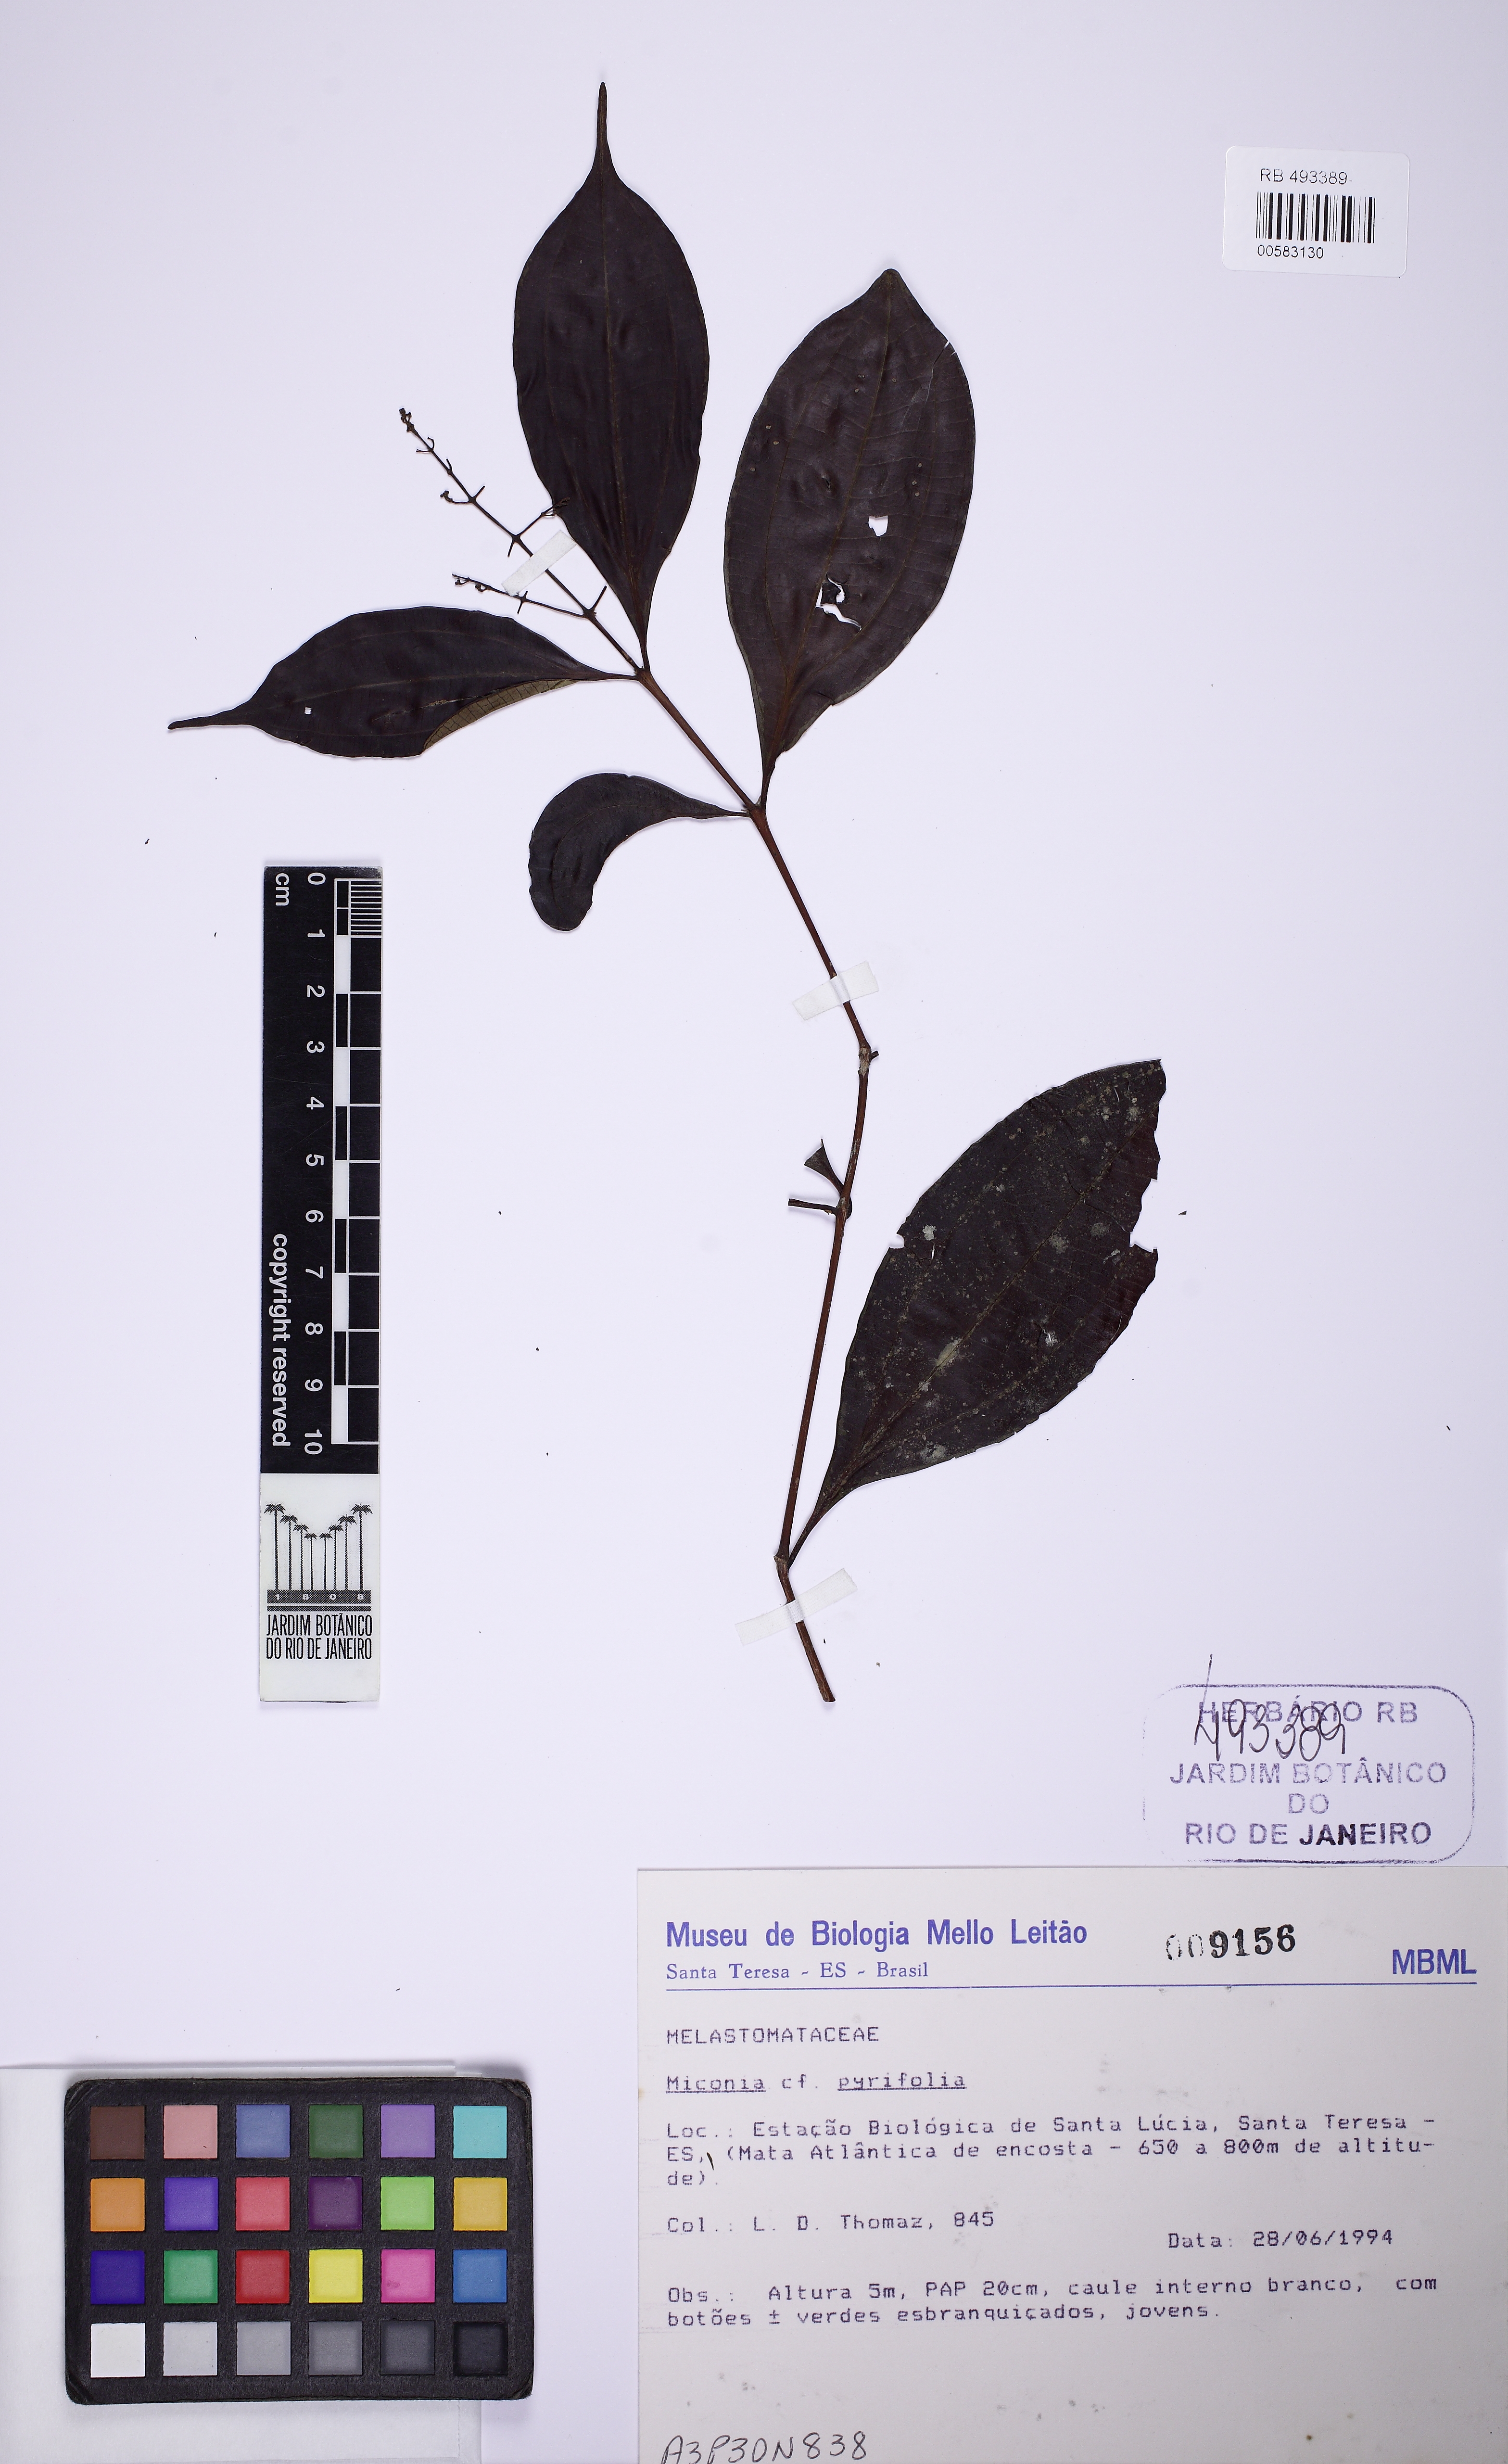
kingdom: Plantae
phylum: Tracheophyta
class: Magnoliopsida
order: Myrtales
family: Melastomataceae
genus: Miconia
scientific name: Miconia pyrifolia
